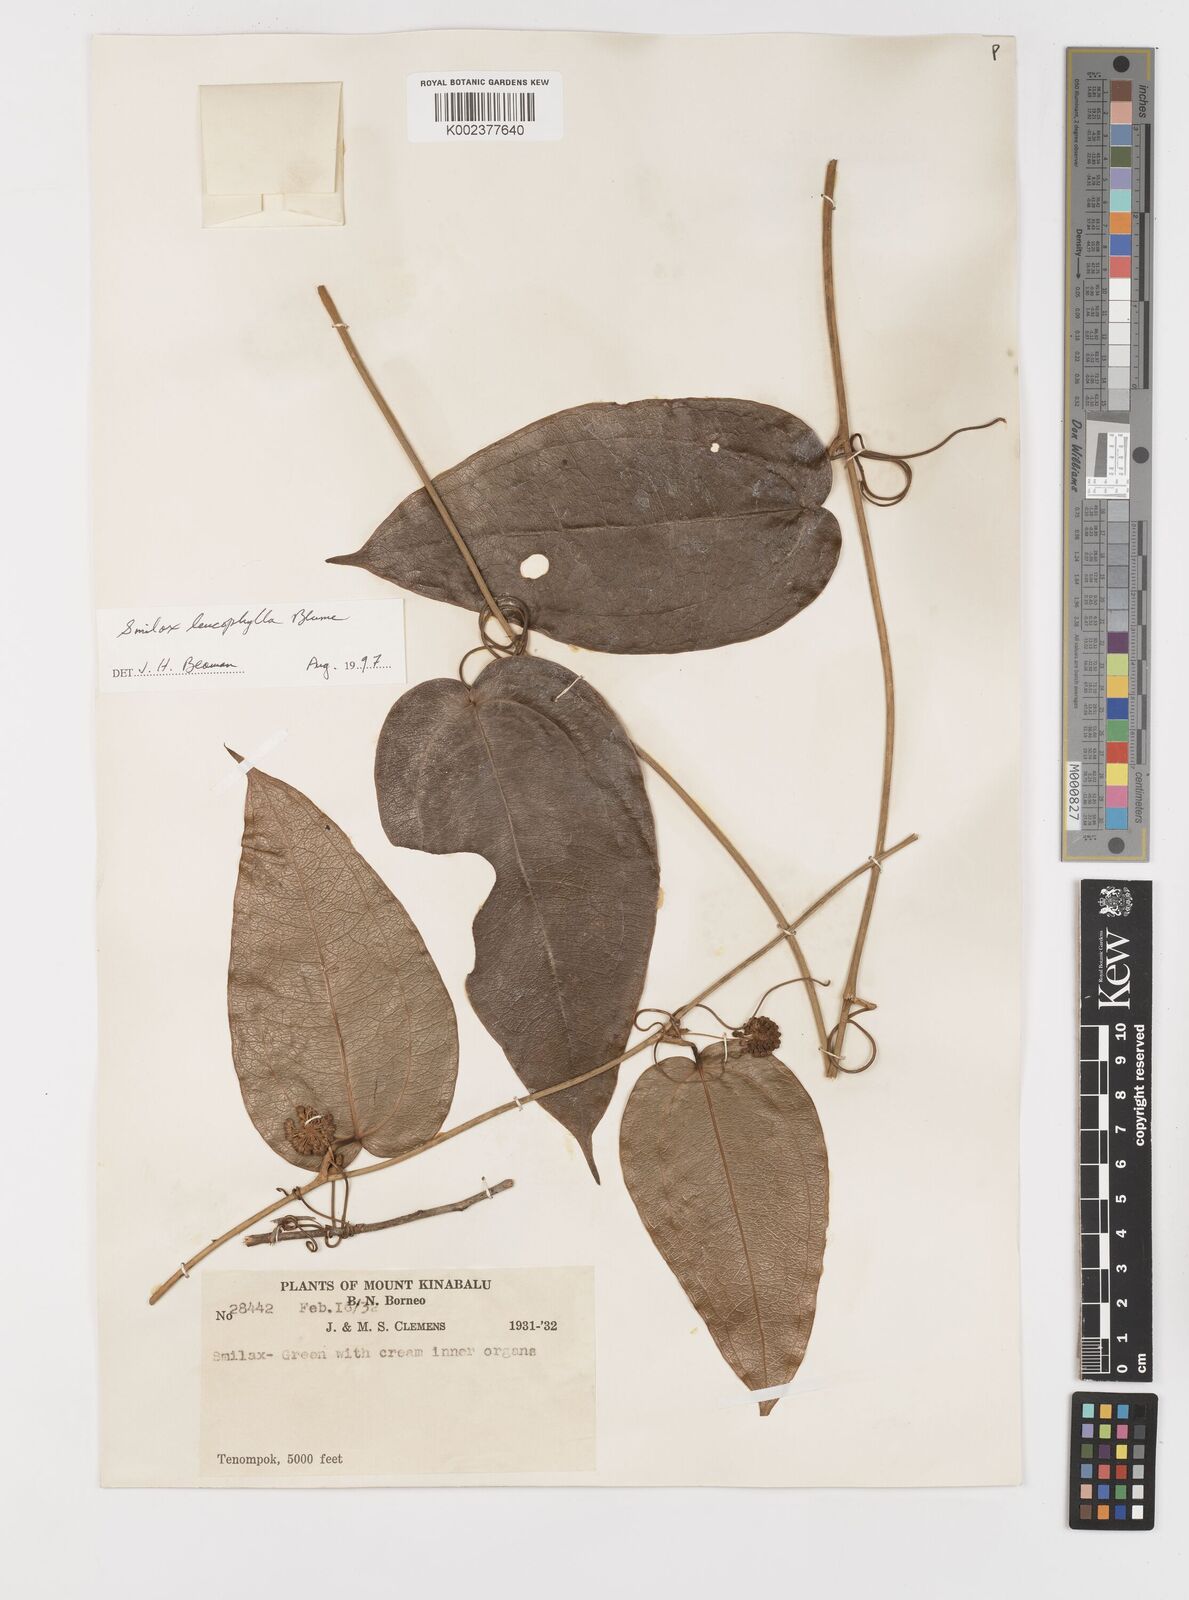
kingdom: Plantae
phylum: Tracheophyta
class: Liliopsida
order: Liliales
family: Smilacaceae
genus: Smilax
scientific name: Smilax leucophylla
